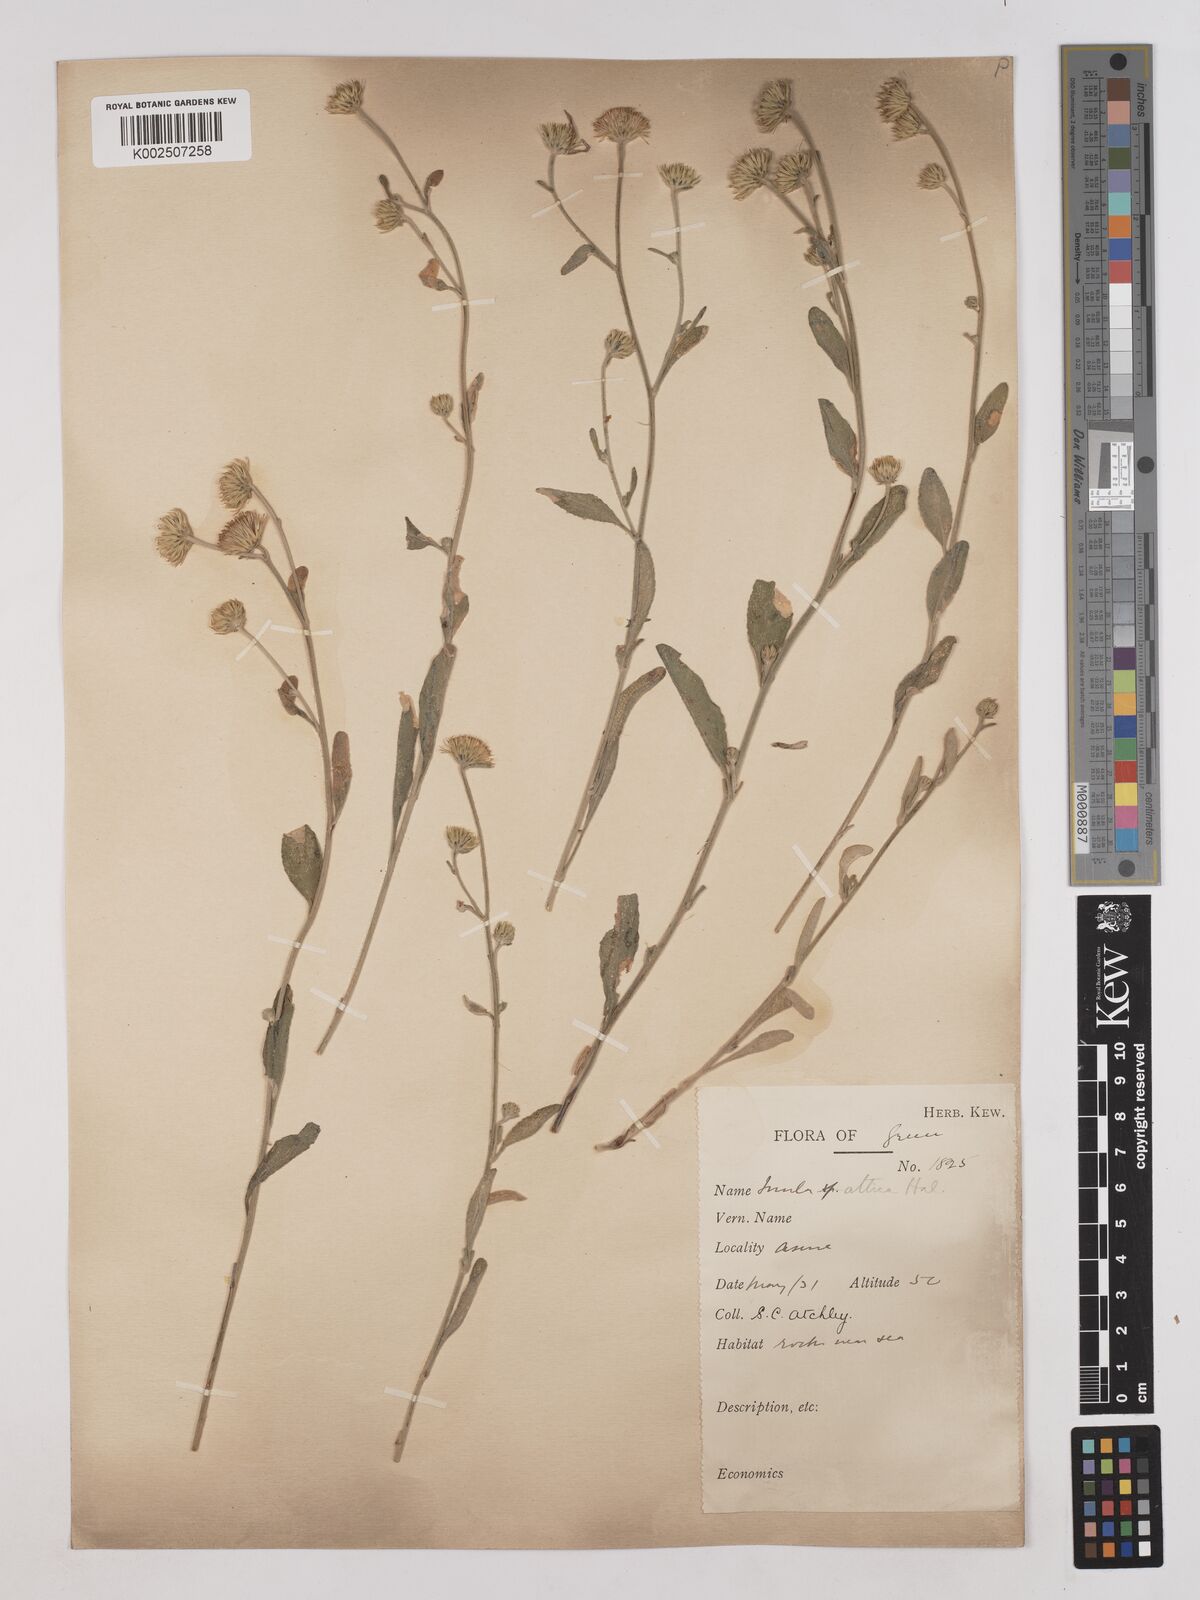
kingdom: Plantae
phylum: Tracheophyta
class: Magnoliopsida
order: Asterales
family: Asteraceae
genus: Pentanema
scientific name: Pentanema verbascifolium
